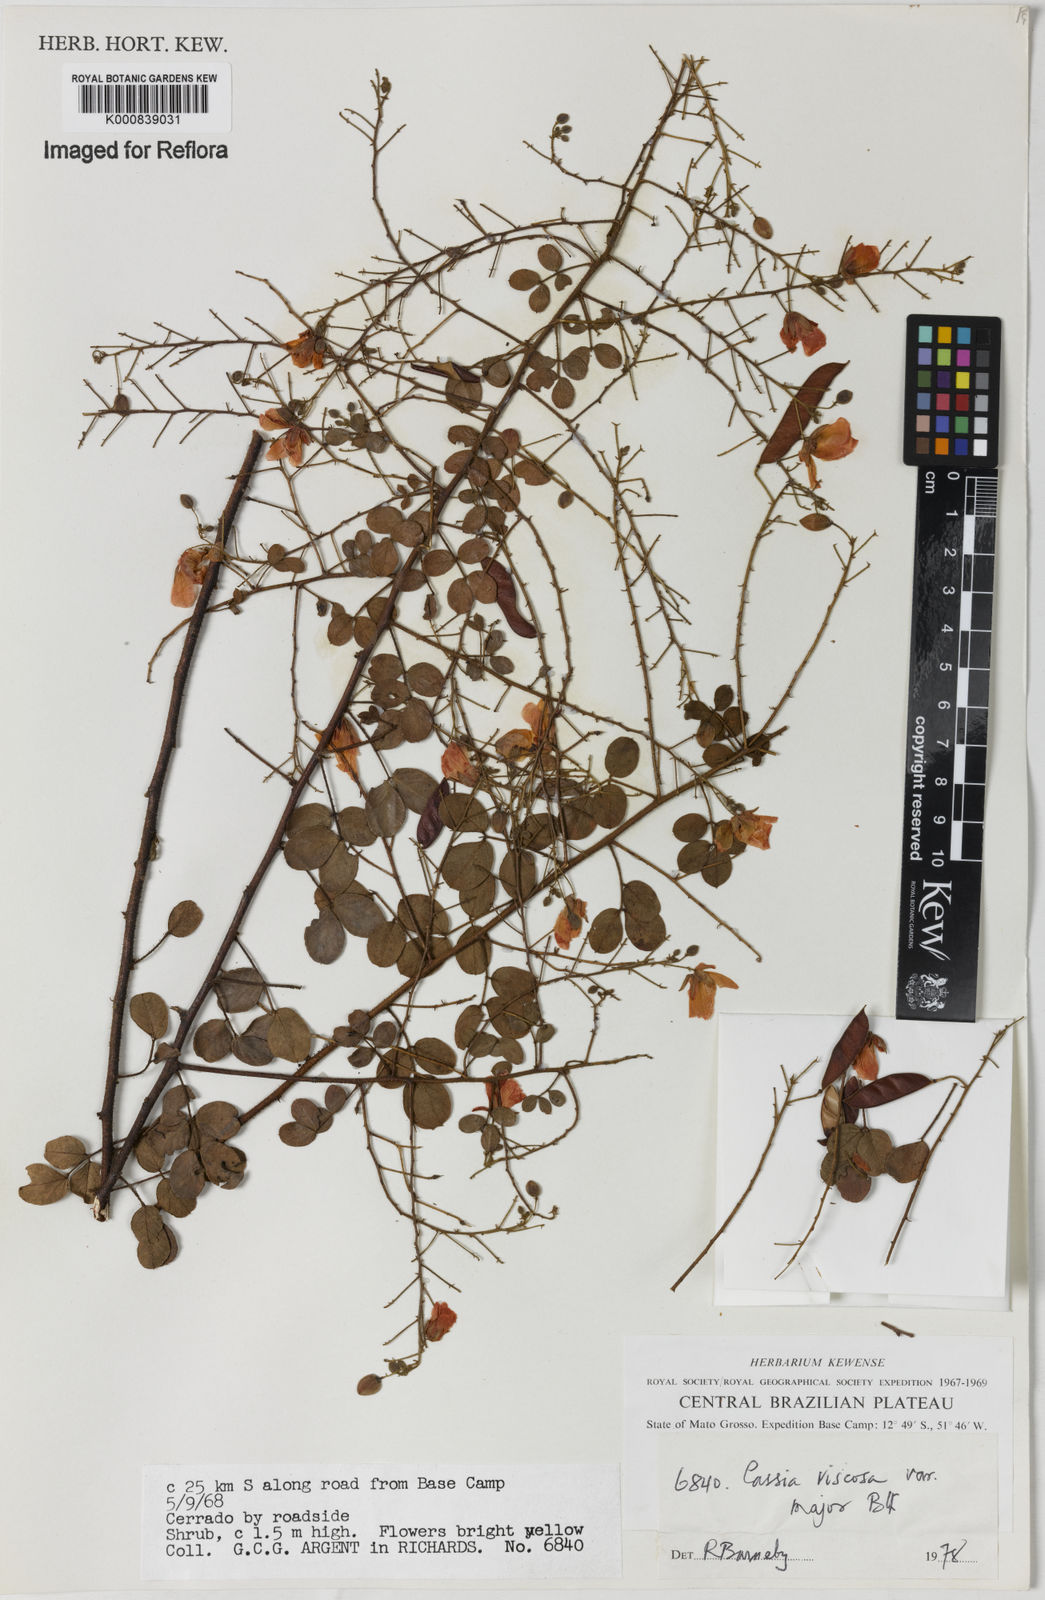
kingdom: Plantae
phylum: Tracheophyta
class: Magnoliopsida
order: Fabales
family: Fabaceae
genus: Chamaecrista
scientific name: Chamaecrista viscosa
